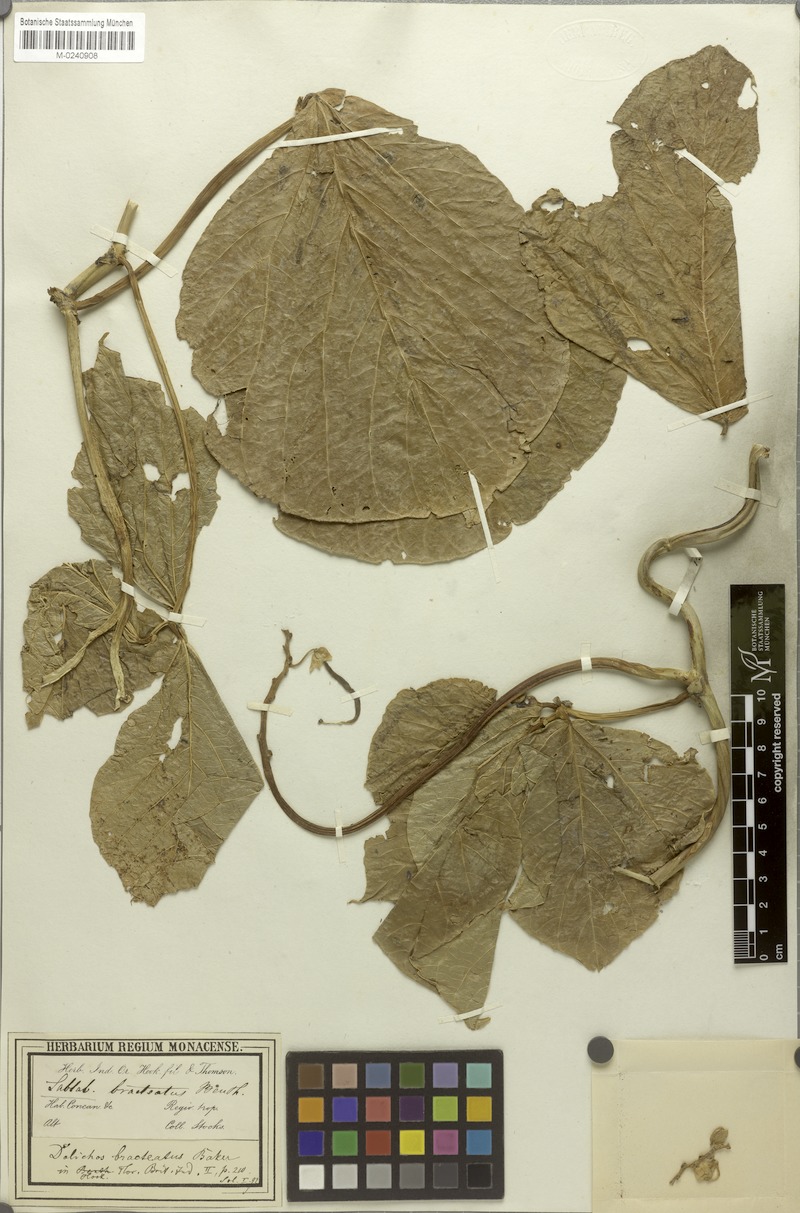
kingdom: Plantae
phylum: Tracheophyta
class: Magnoliopsida
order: Fabales
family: Fabaceae
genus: Lablab
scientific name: Lablab purpureus
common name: Lablab-bean
